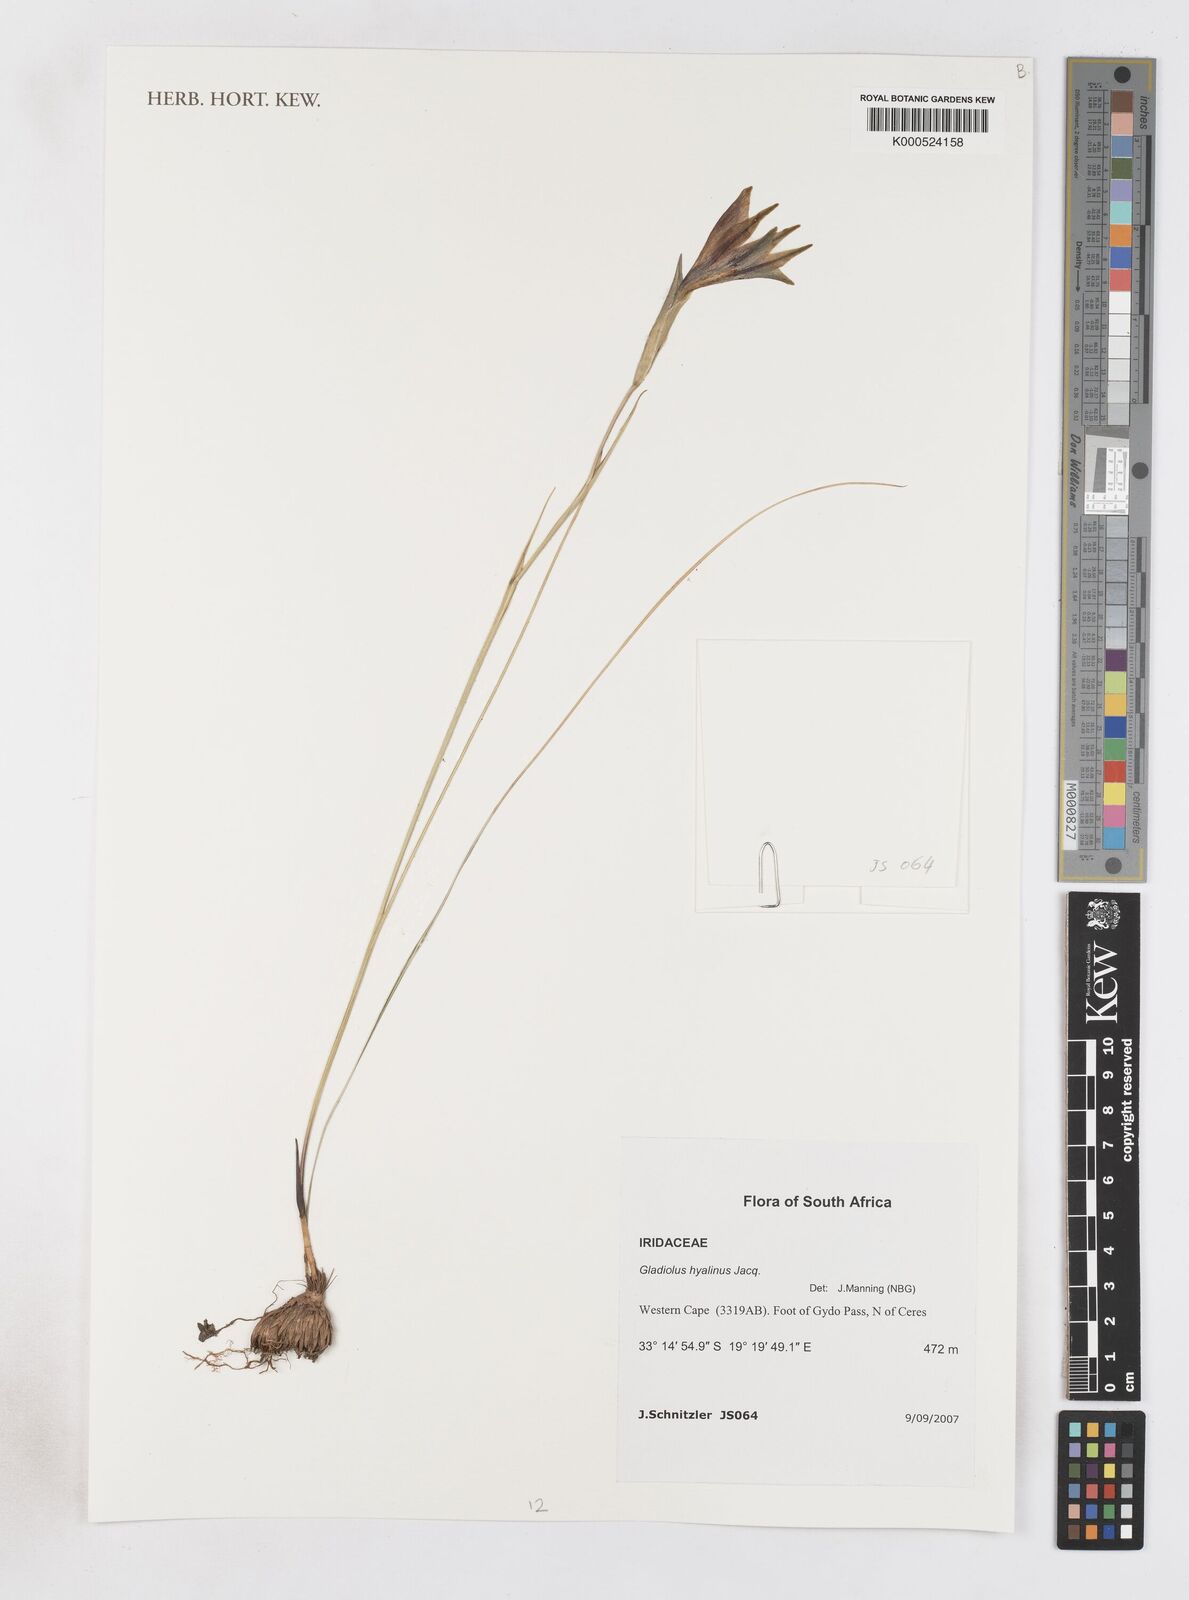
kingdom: Plantae
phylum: Tracheophyta
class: Liliopsida
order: Asparagales
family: Iridaceae
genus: Gladiolus
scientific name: Gladiolus hyalinus
